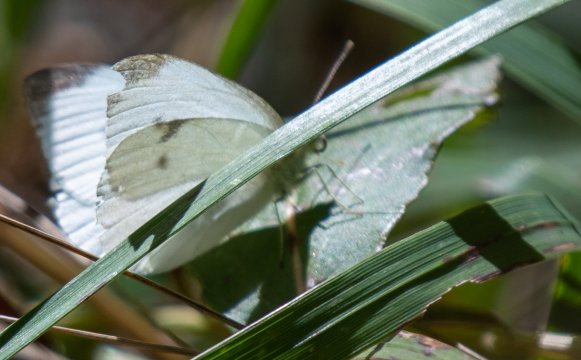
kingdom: Animalia
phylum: Arthropoda
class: Insecta
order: Lepidoptera
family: Pieridae
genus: Pieris
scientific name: Pieris rapae
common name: Cabbage White
